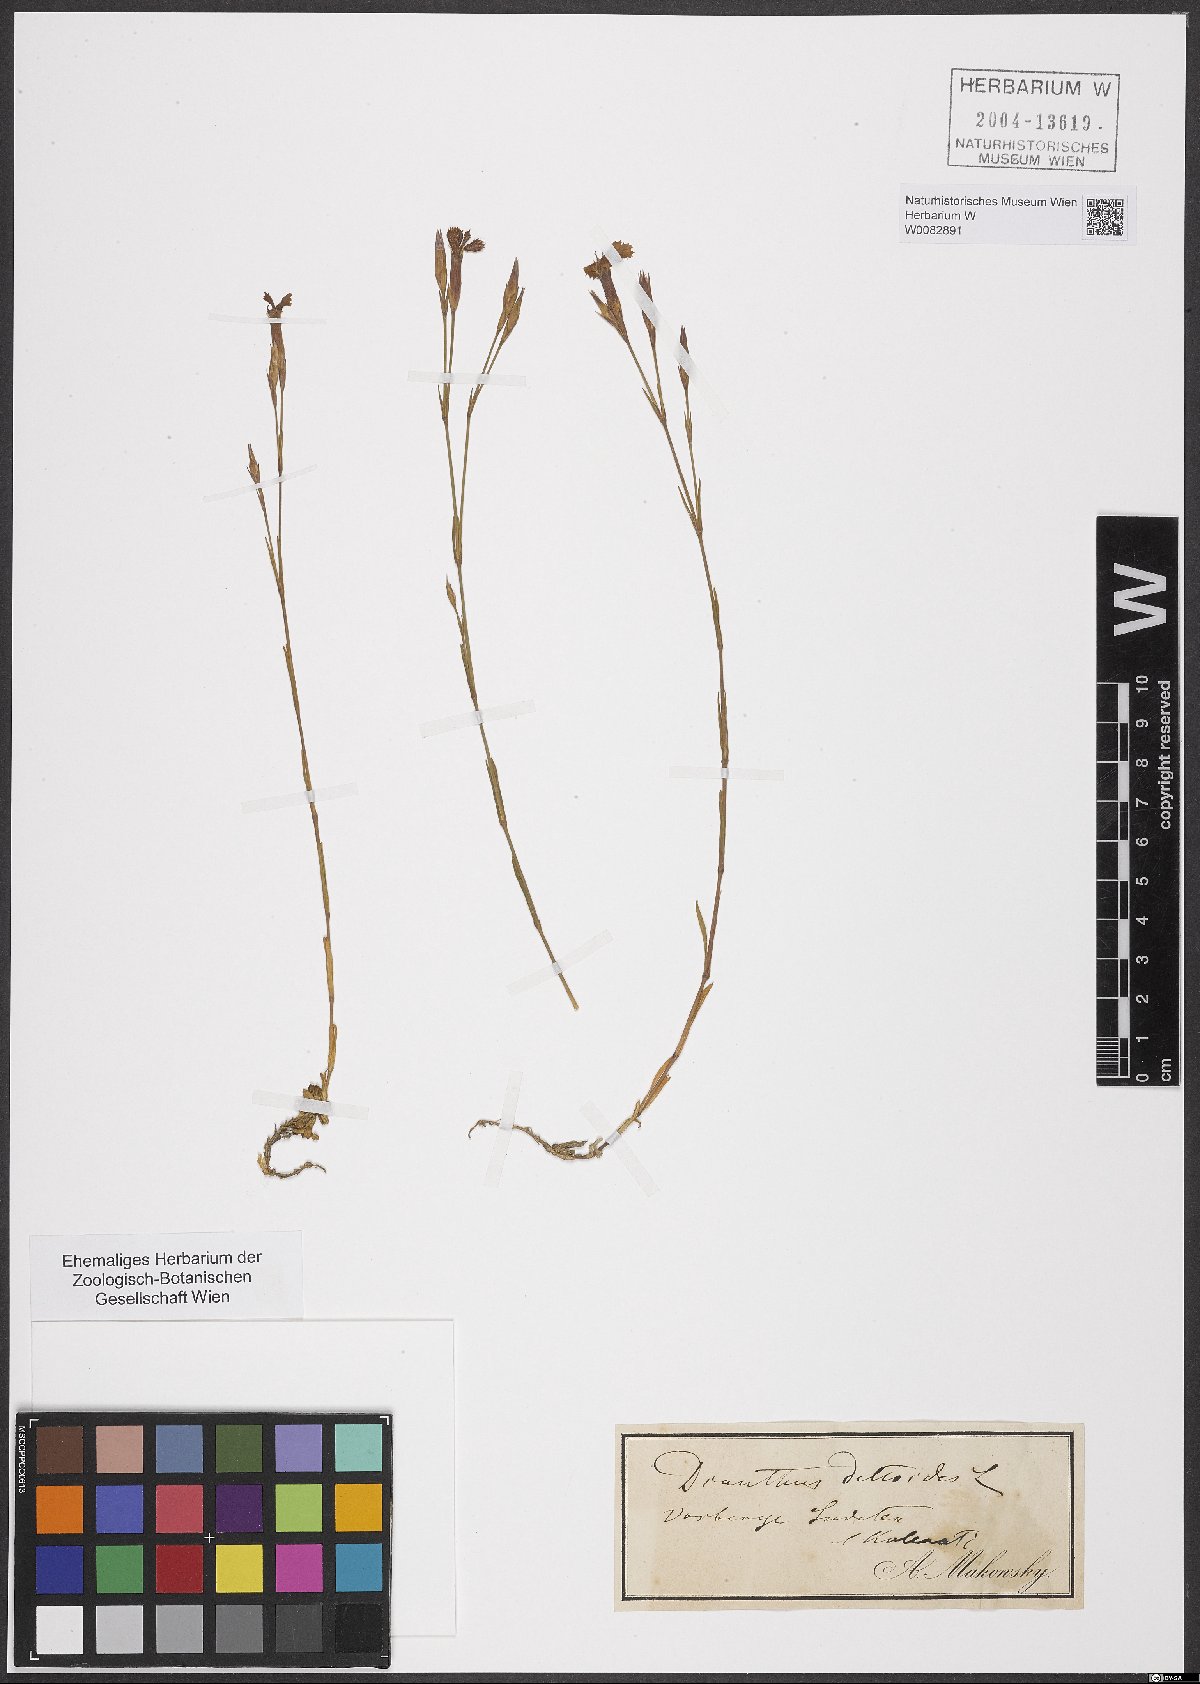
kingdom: Plantae
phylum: Tracheophyta
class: Magnoliopsida
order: Caryophyllales
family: Caryophyllaceae
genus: Dianthus
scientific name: Dianthus deltoides
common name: Maiden pink
